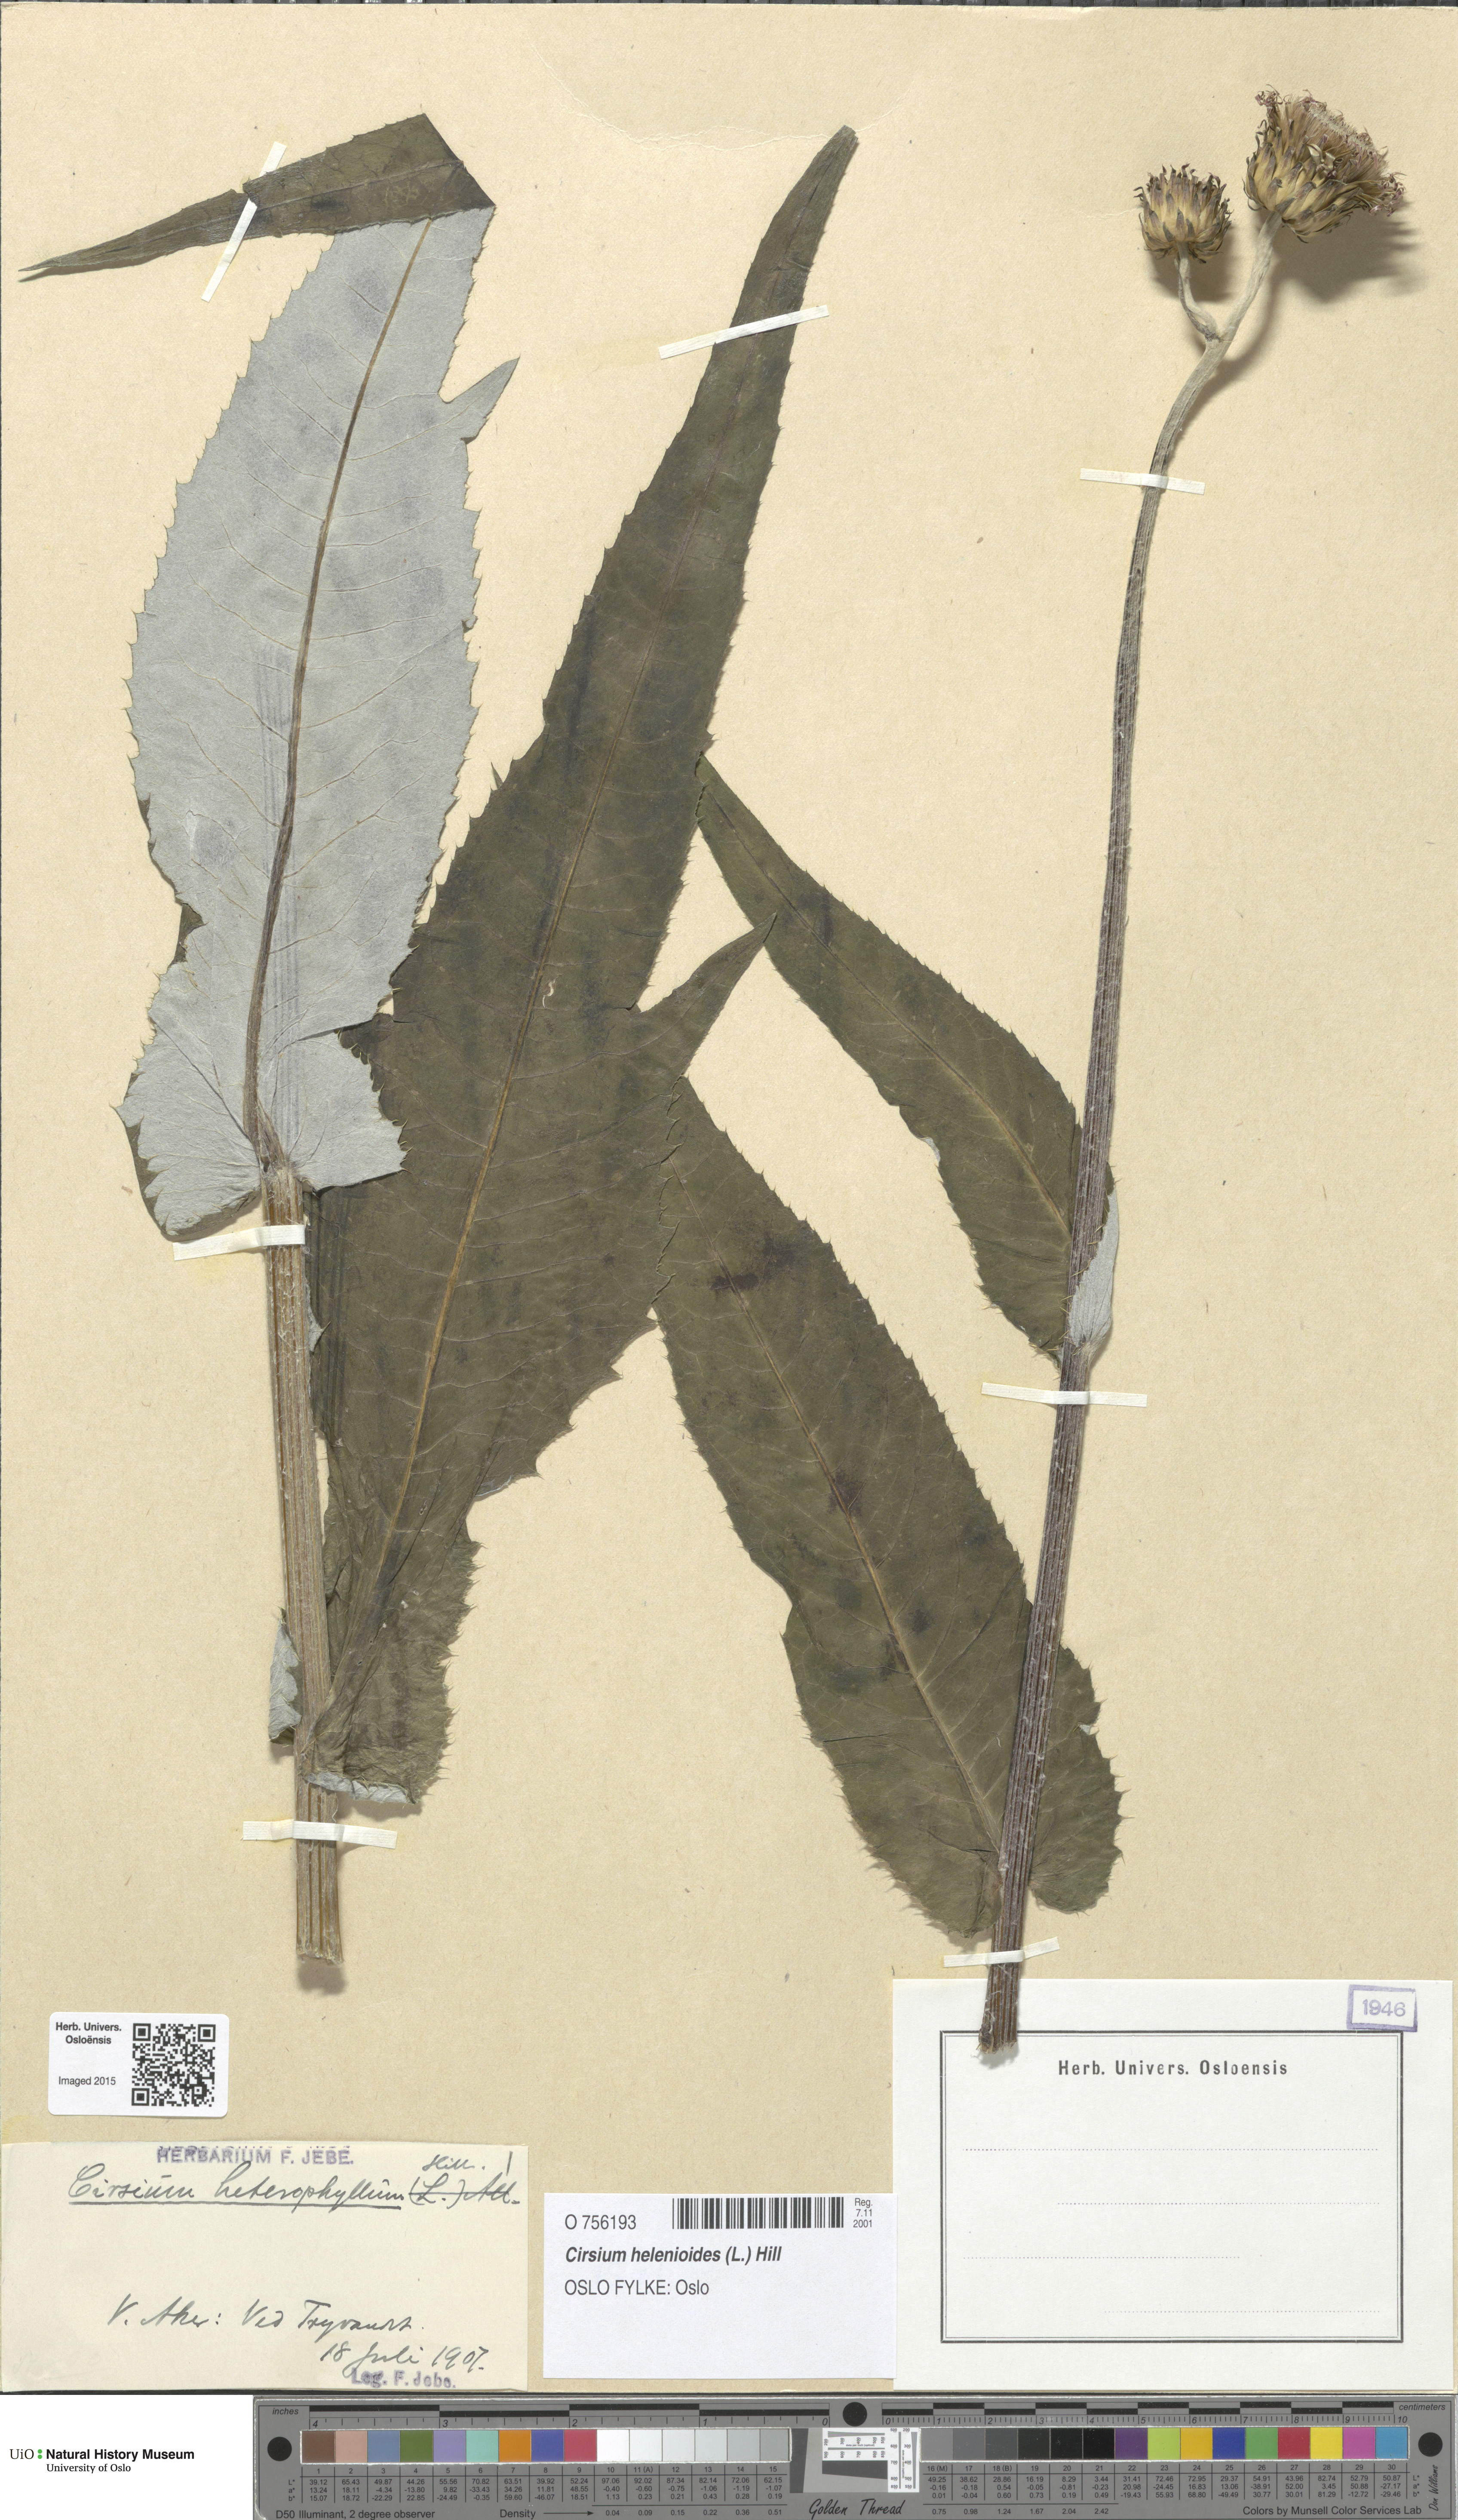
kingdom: Plantae
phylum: Tracheophyta
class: Magnoliopsida
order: Asterales
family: Asteraceae
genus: Cirsium
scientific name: Cirsium heterophyllum
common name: Melancholy thistle
